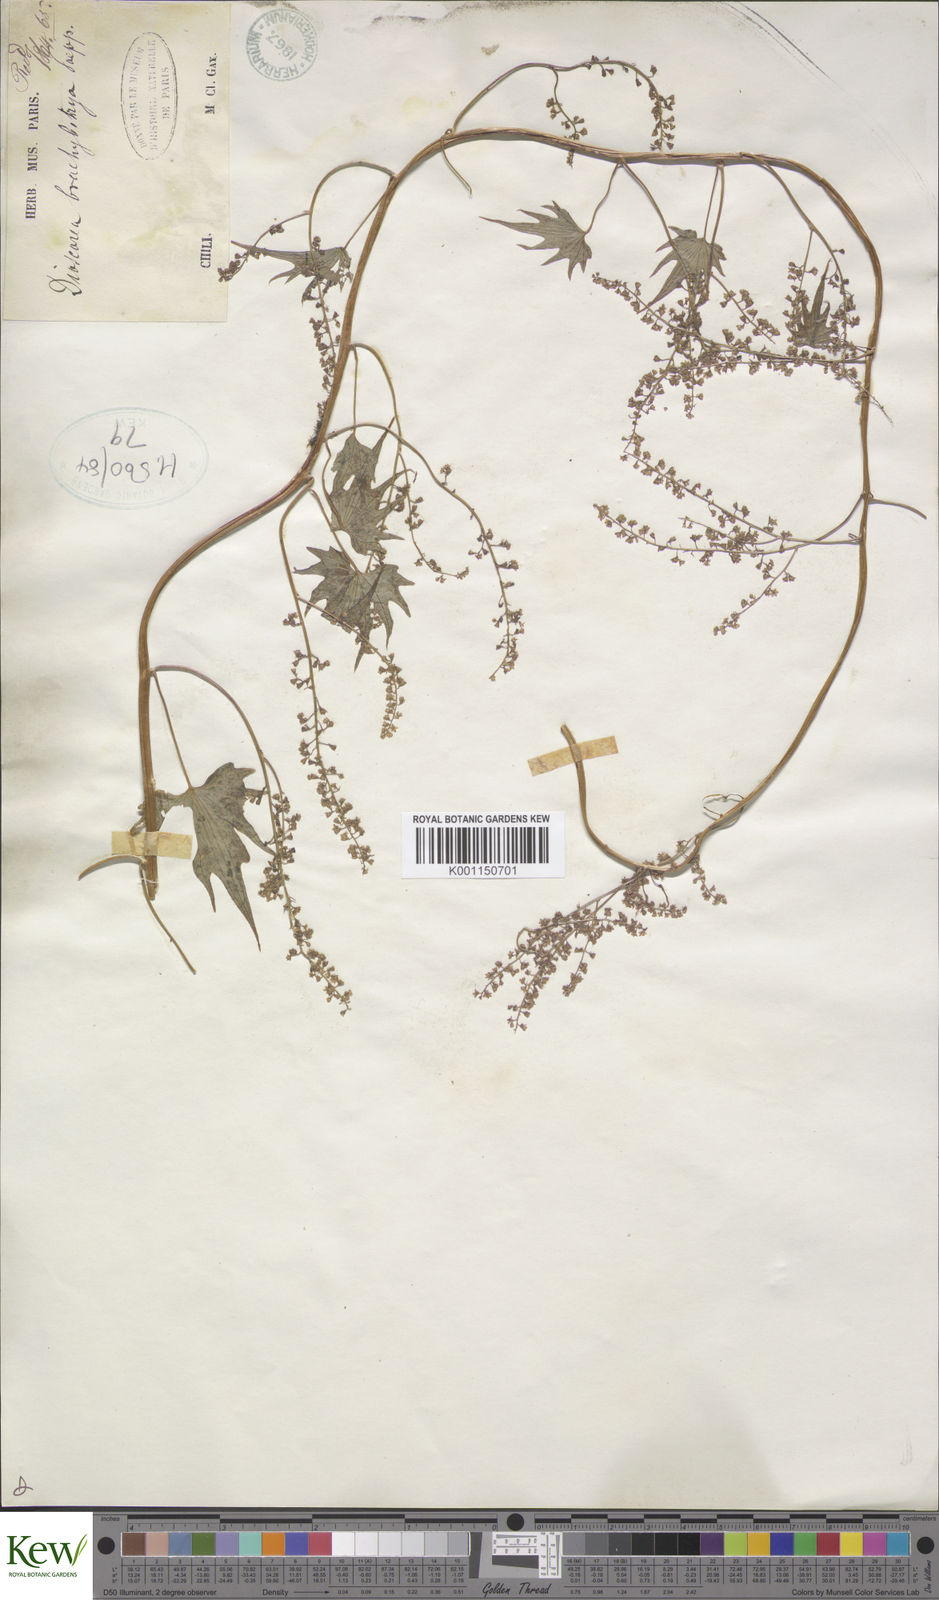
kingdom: Plantae
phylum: Tracheophyta
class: Liliopsida
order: Dioscoreales
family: Dioscoreaceae
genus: Dioscorea
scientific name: Dioscorea brachybotrya
